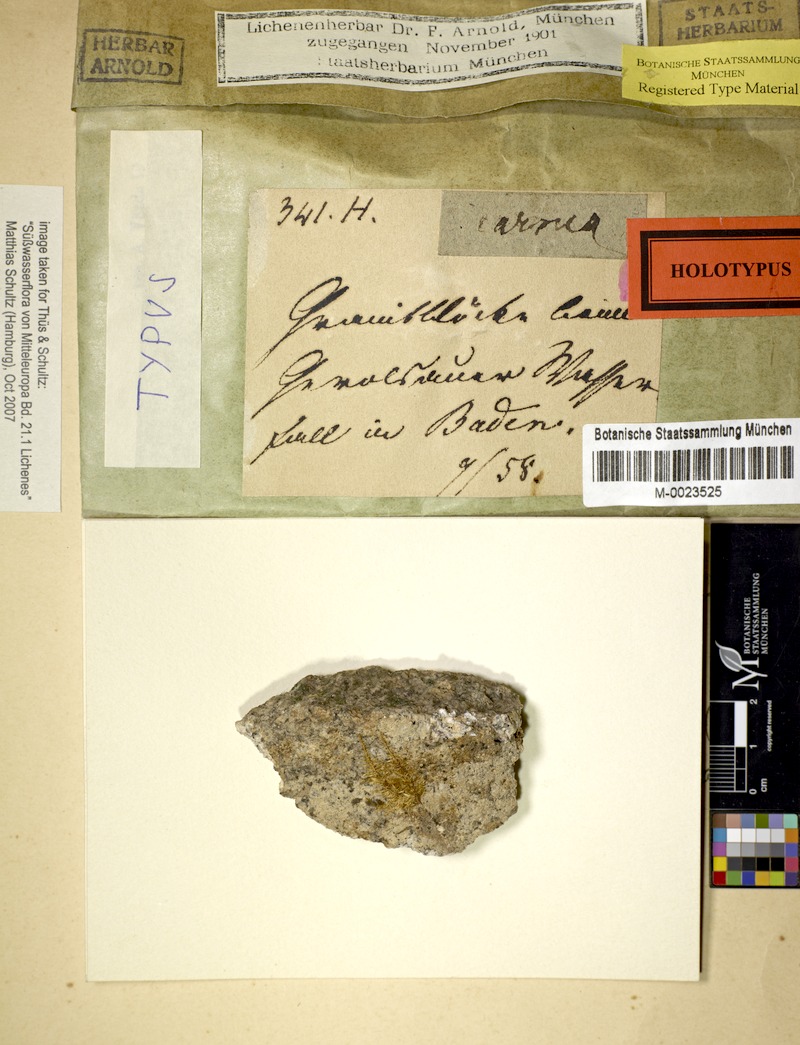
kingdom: Fungi
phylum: Ascomycota
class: Lecanoromycetes
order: Ostropales
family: Gomphillaceae
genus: Gyalidea
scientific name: Gyalidea hyalinescens
